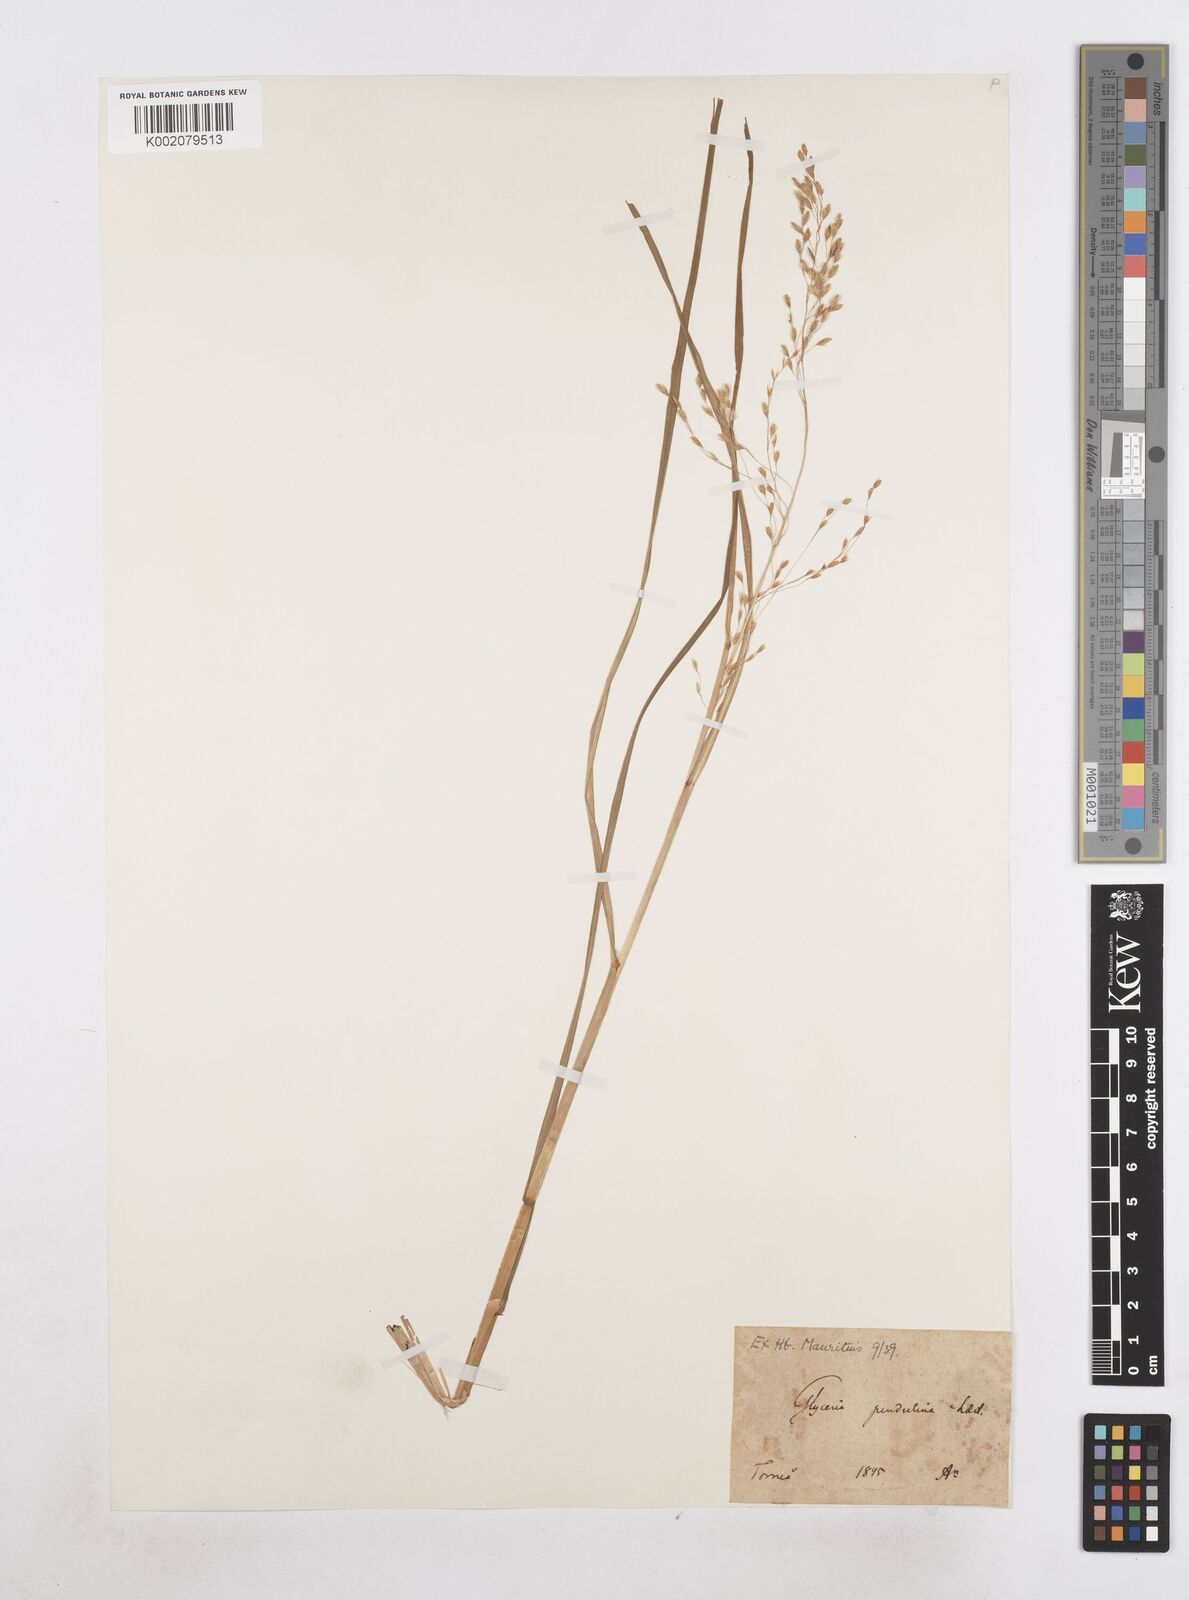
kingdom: Plantae
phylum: Tracheophyta
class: Liliopsida
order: Poales
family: Poaceae
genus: Dupontia
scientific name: Dupontia fulva
